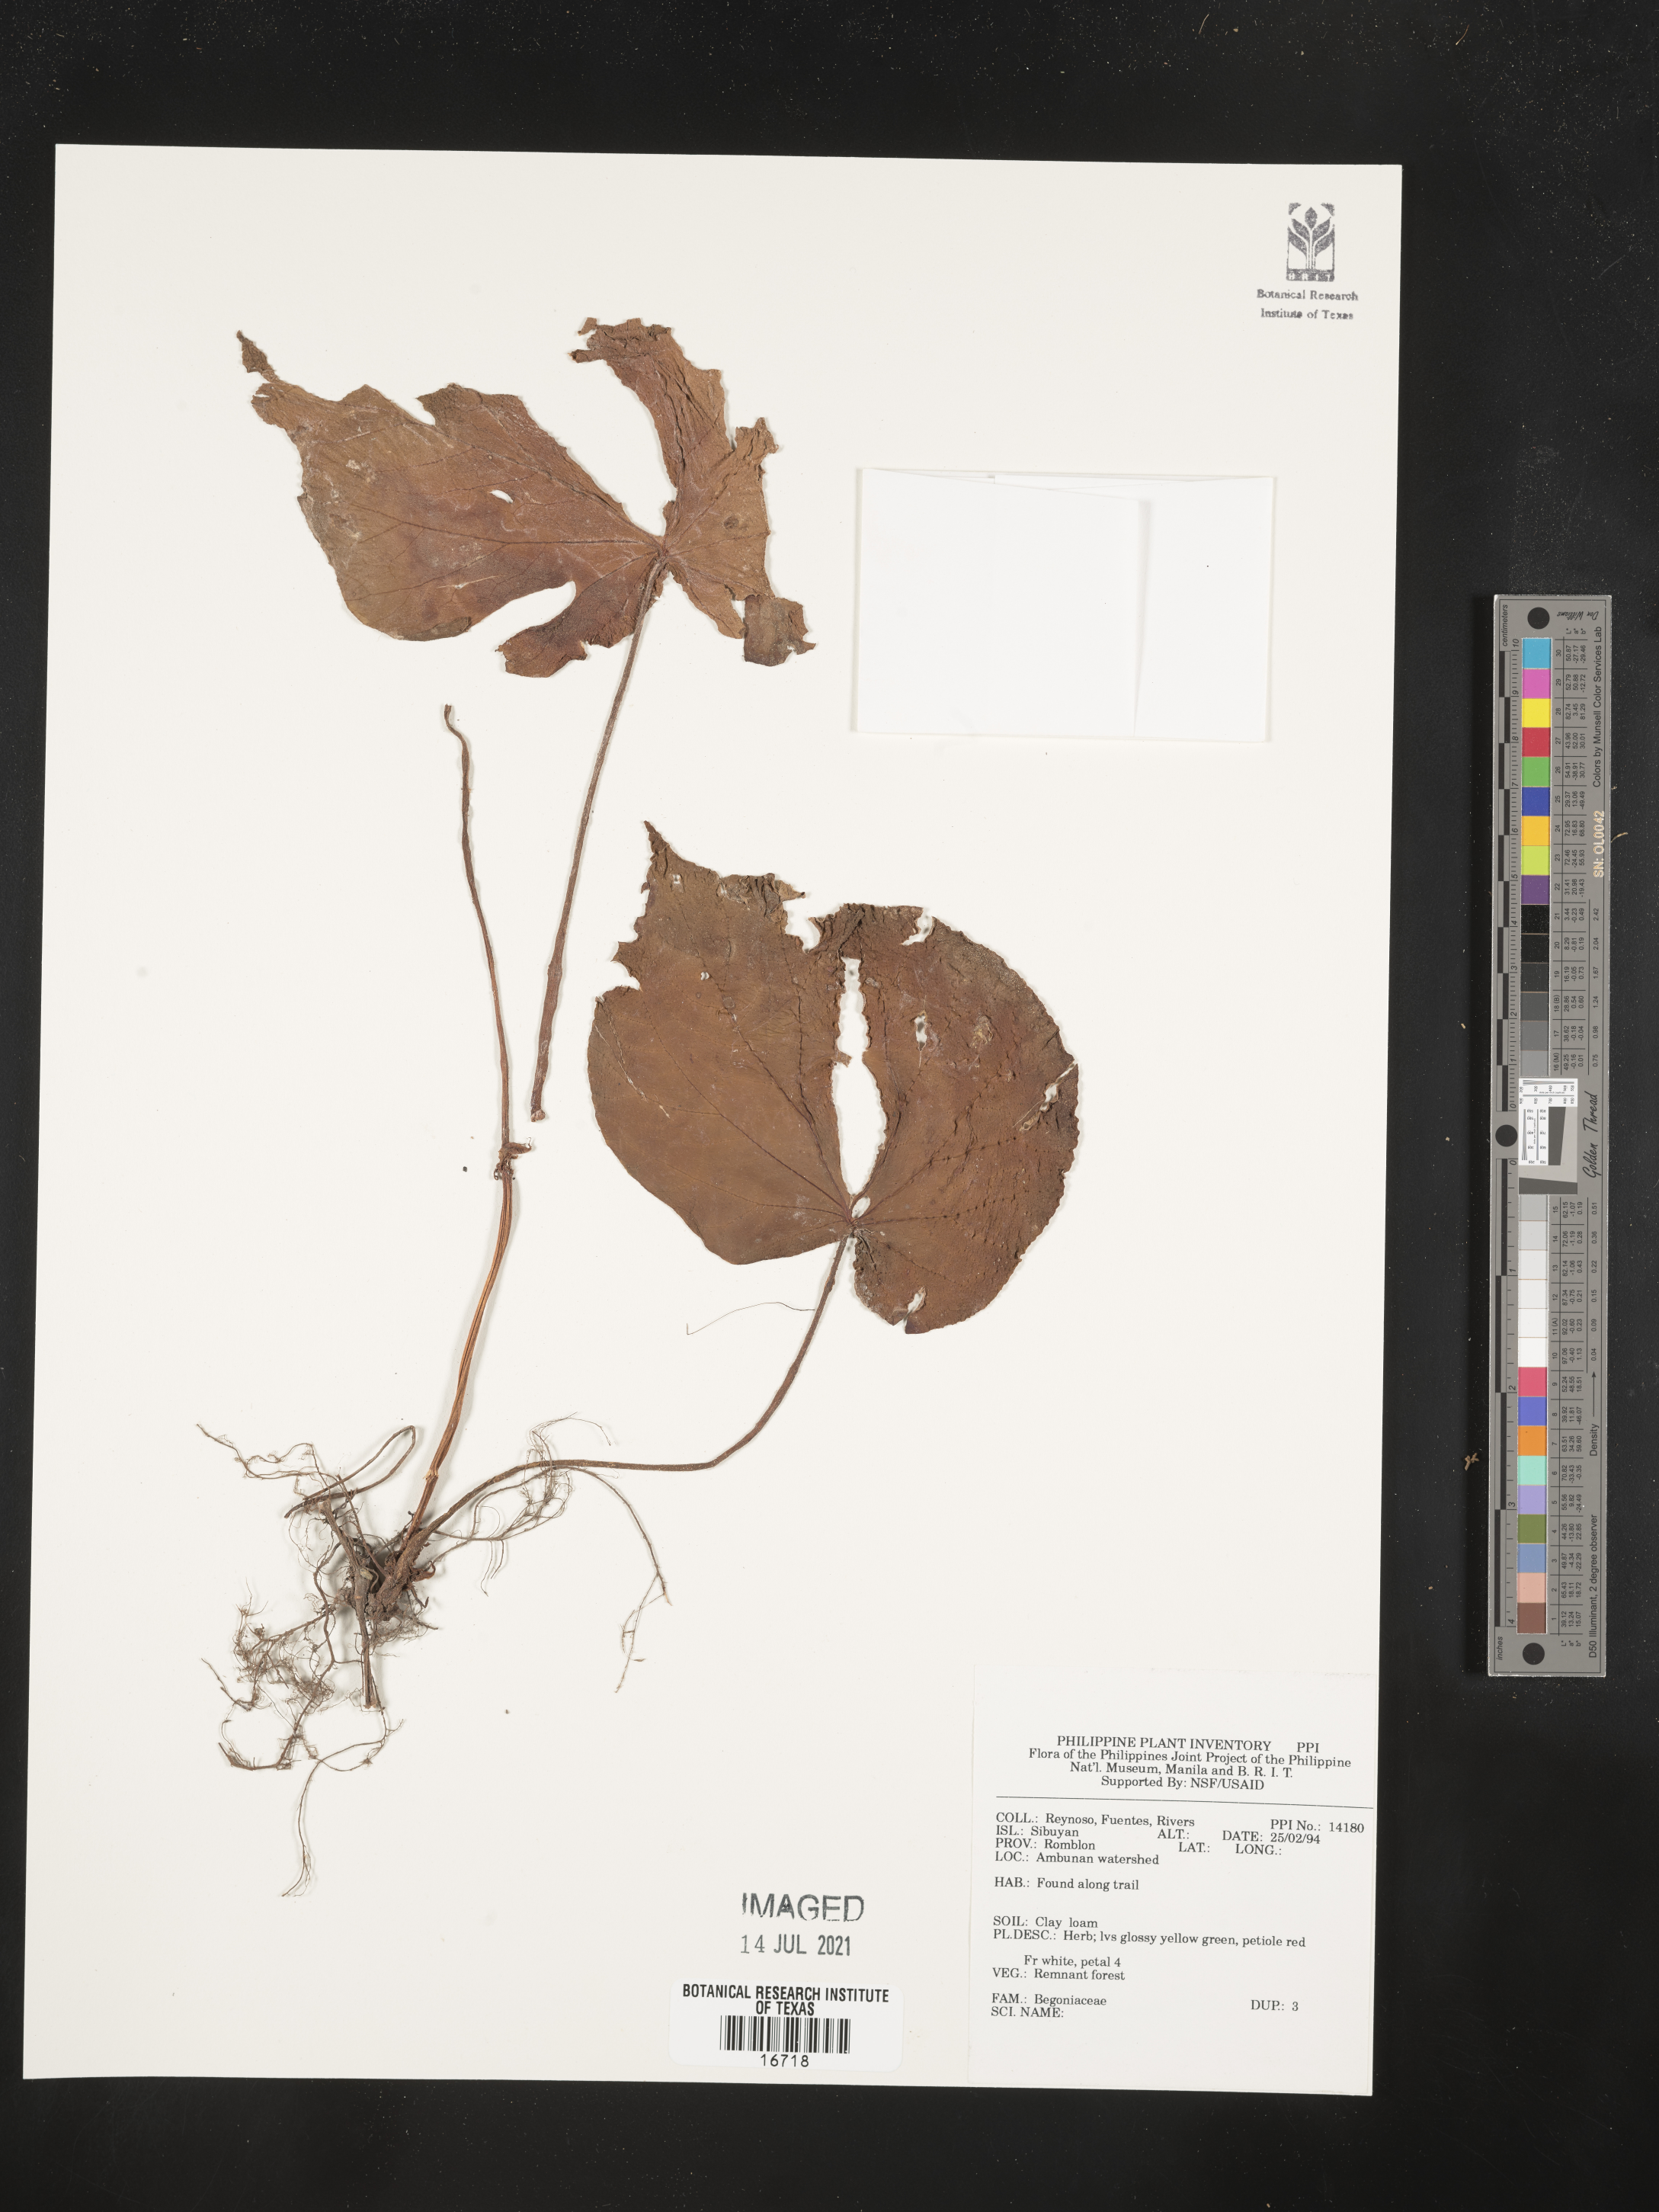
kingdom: Plantae
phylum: Tracheophyta
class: Magnoliopsida
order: Cucurbitales
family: Begoniaceae
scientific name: Begoniaceae
